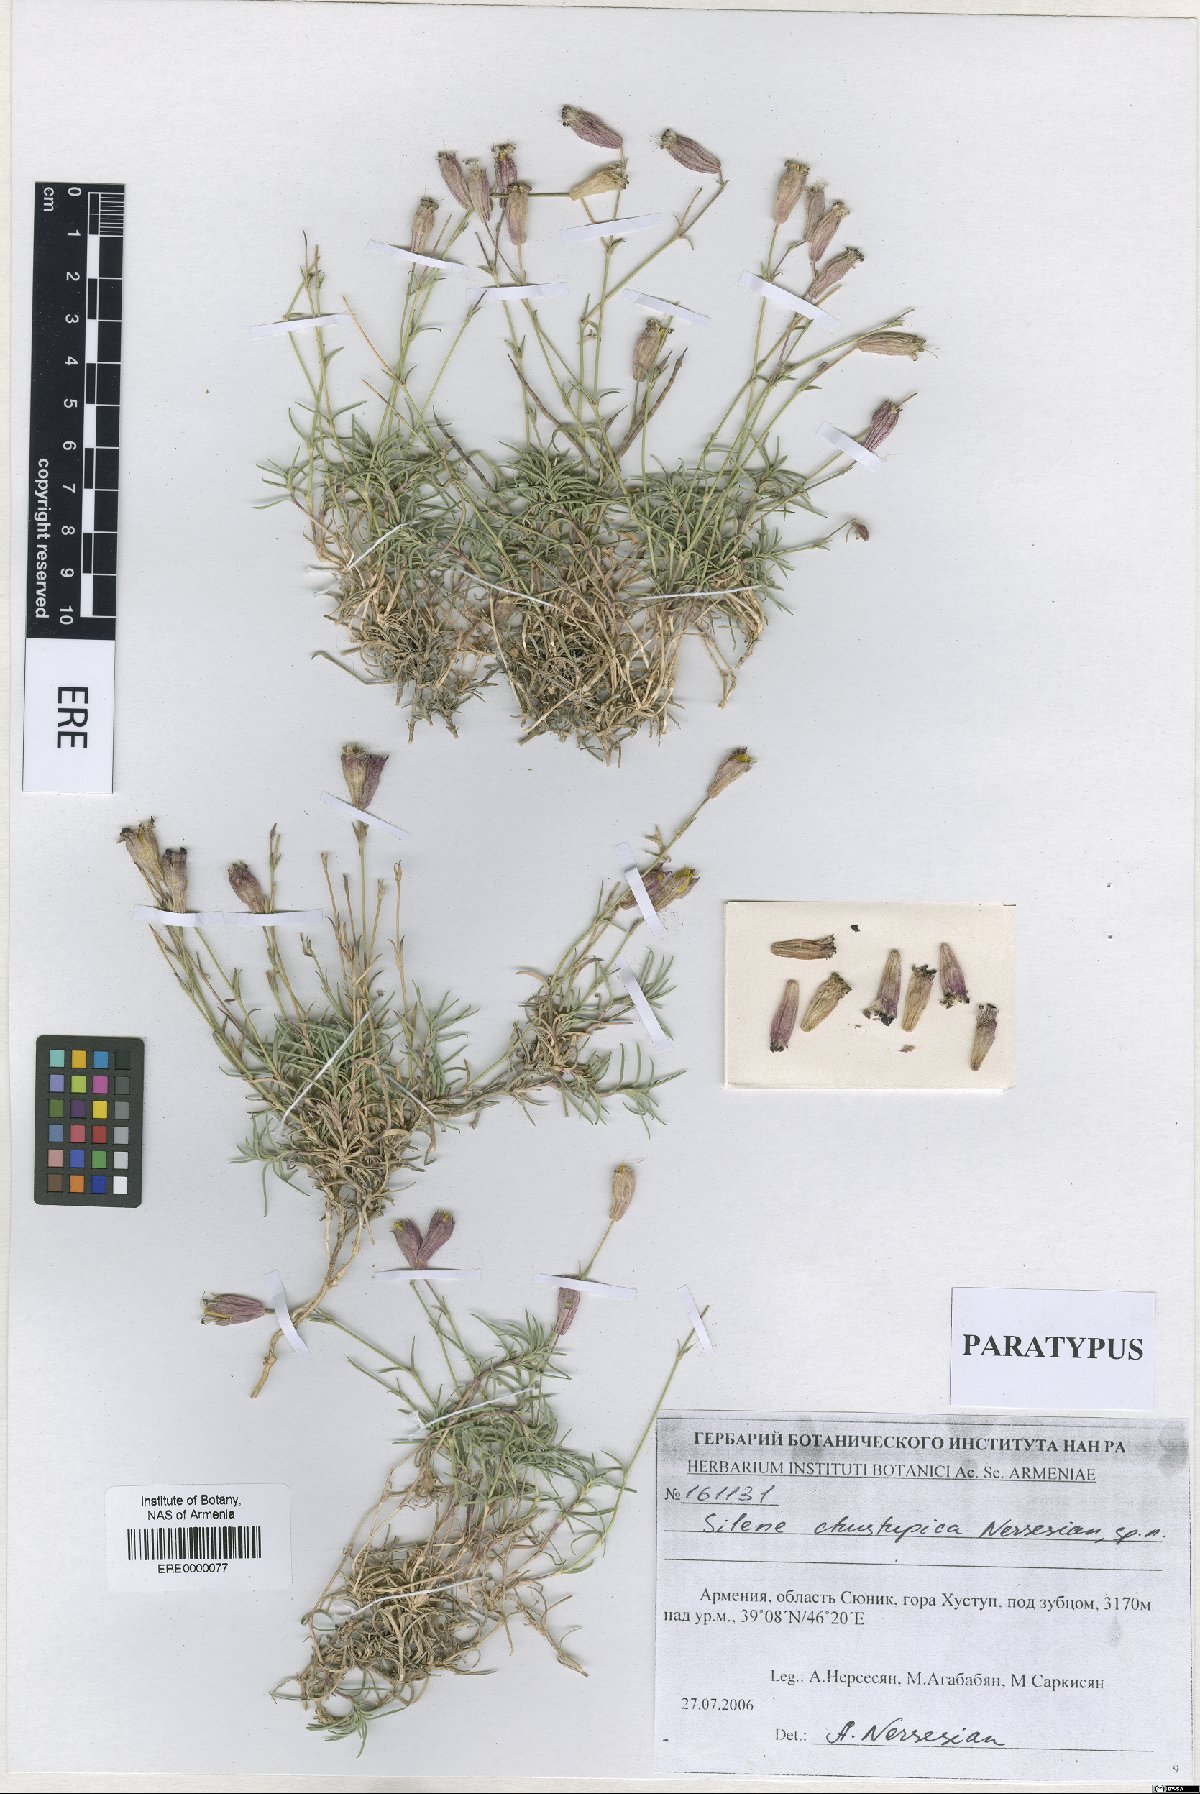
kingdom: Plantae
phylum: Tracheophyta
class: Magnoliopsida
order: Caryophyllales
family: Caryophyllaceae
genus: Silene
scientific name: Silene pungens
